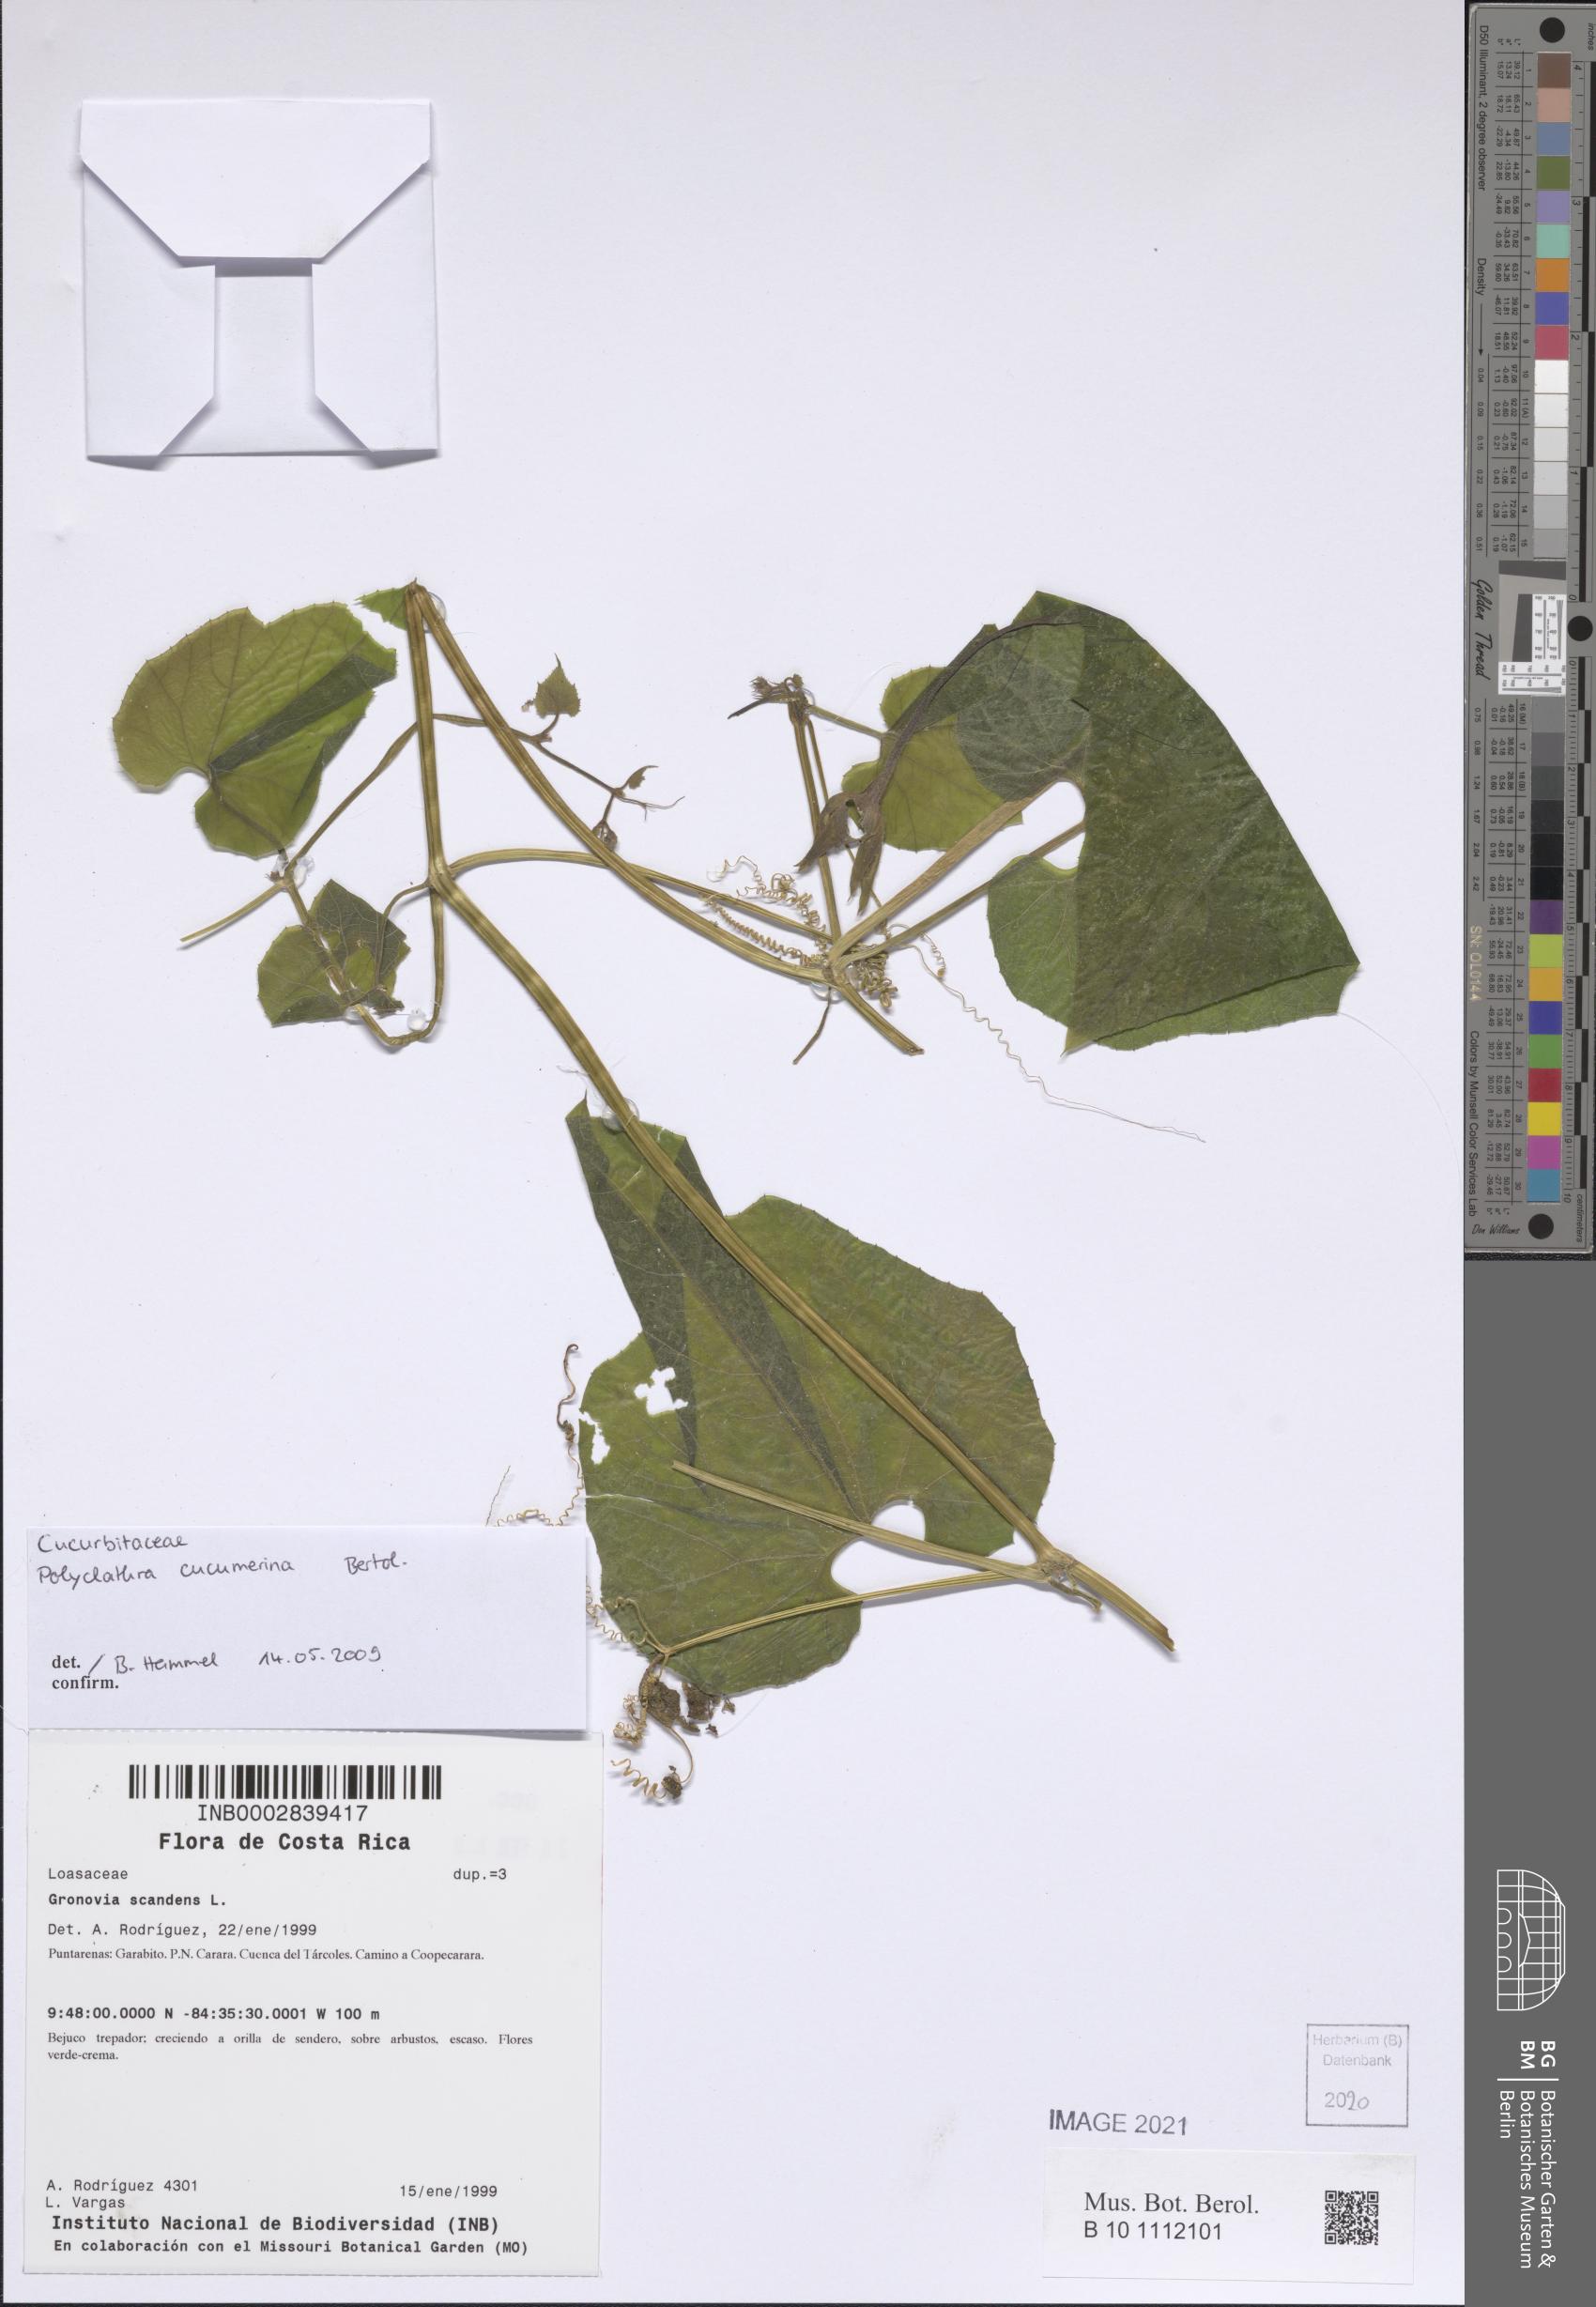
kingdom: Plantae
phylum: Tracheophyta
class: Magnoliopsida
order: Cucurbitales
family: Cucurbitaceae
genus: Polyclathra
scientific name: Polyclathra cucumerina
